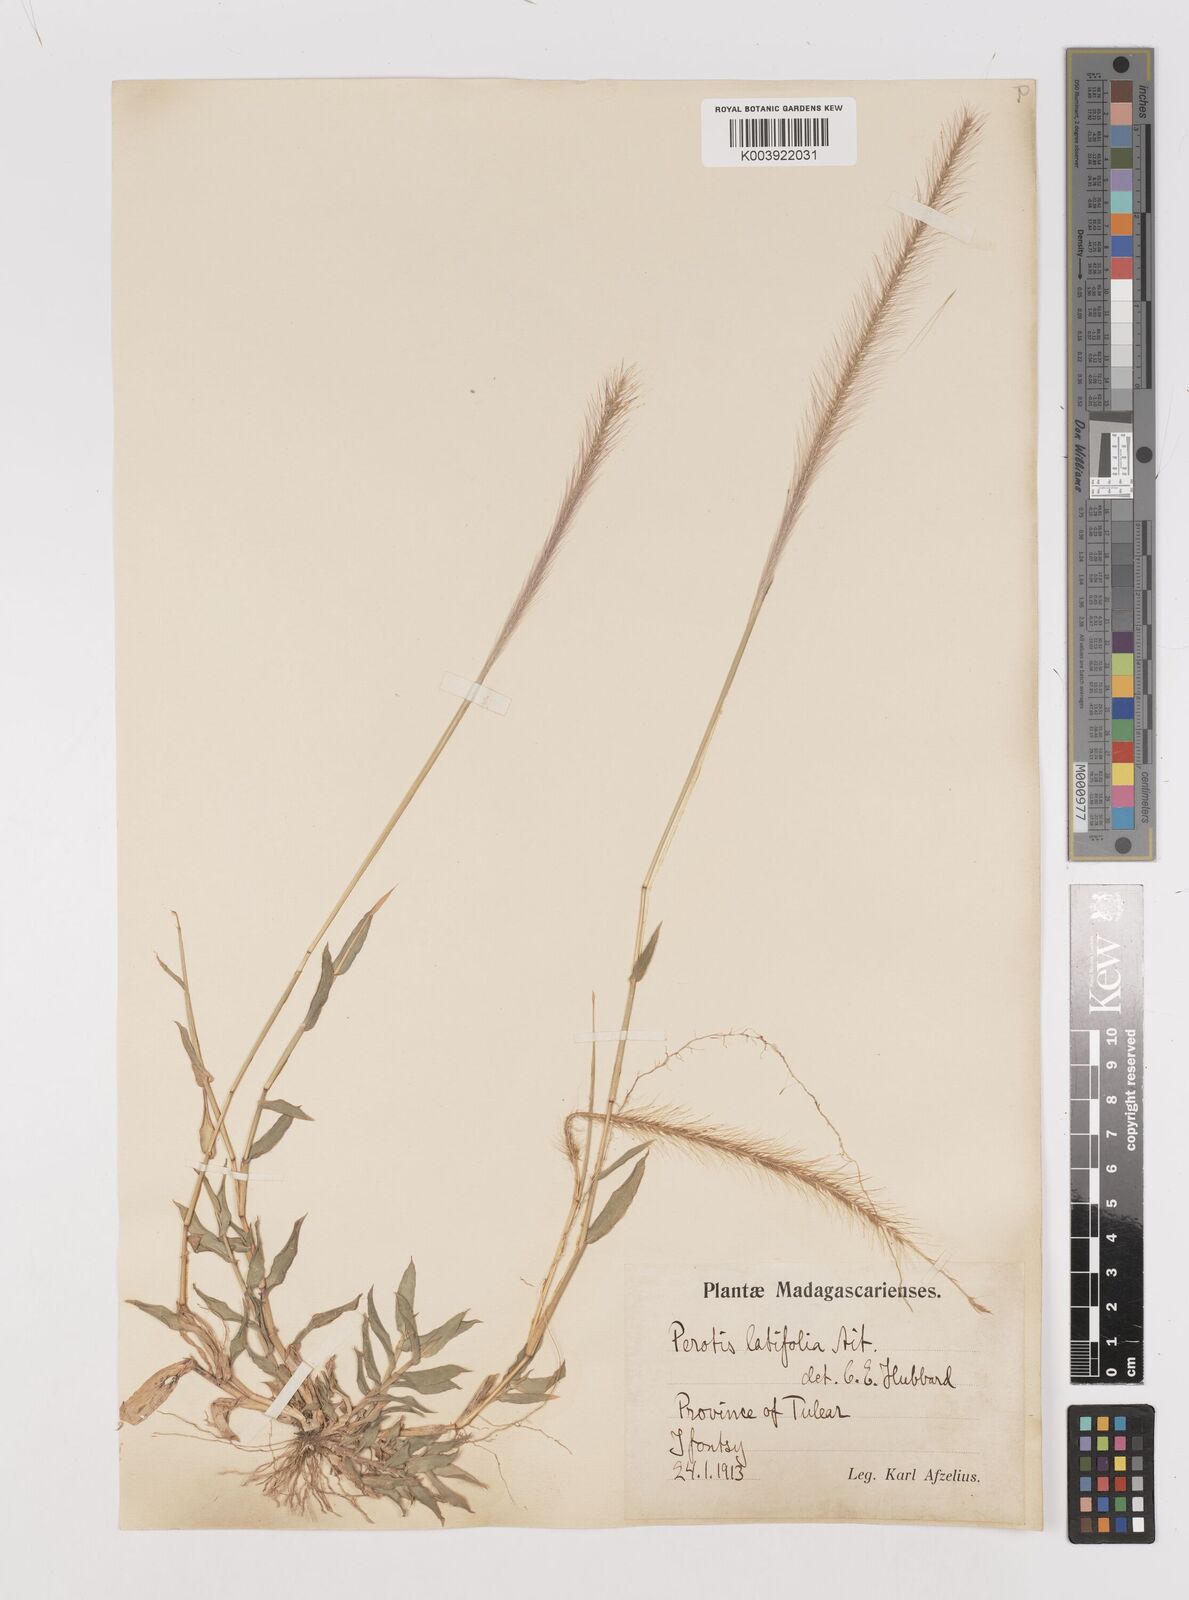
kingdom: Plantae
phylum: Tracheophyta
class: Liliopsida
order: Poales
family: Poaceae
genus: Perotis
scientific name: Perotis patens
